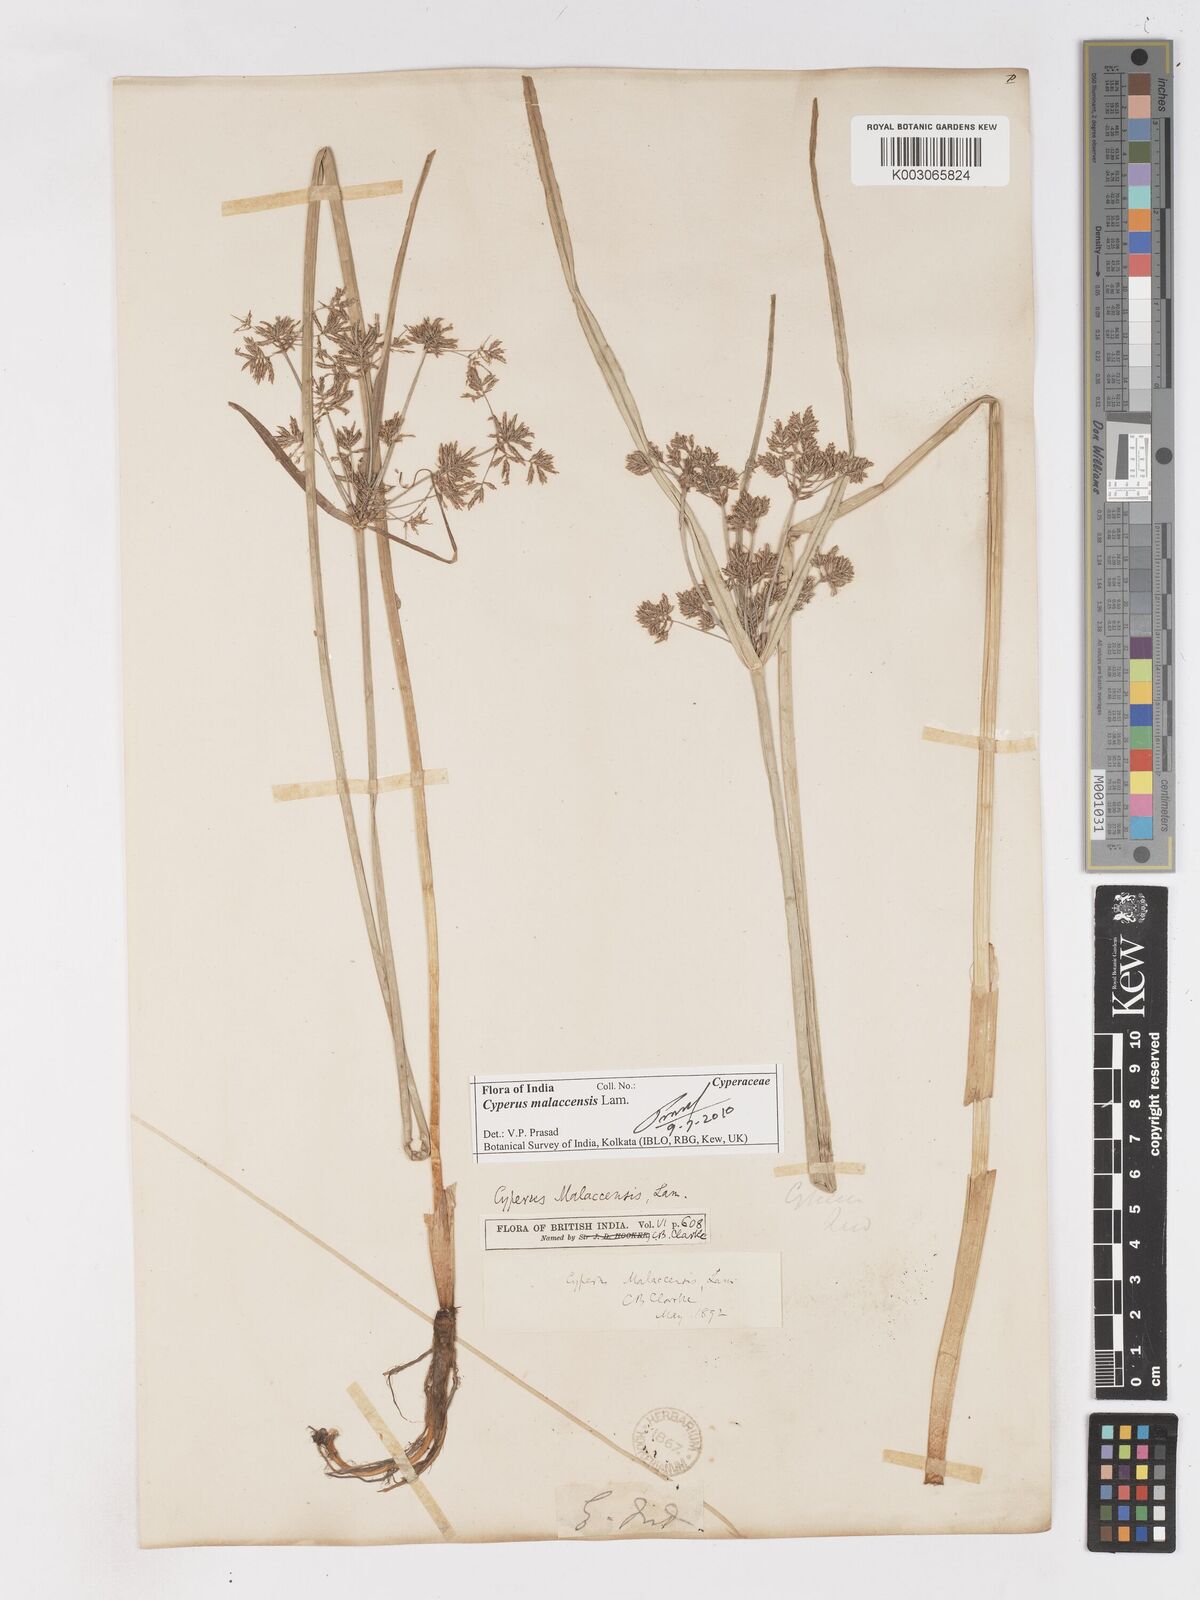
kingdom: Plantae
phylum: Tracheophyta
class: Liliopsida
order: Poales
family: Cyperaceae
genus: Cyperus
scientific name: Cyperus malaccensis
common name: Shichito matgrass
